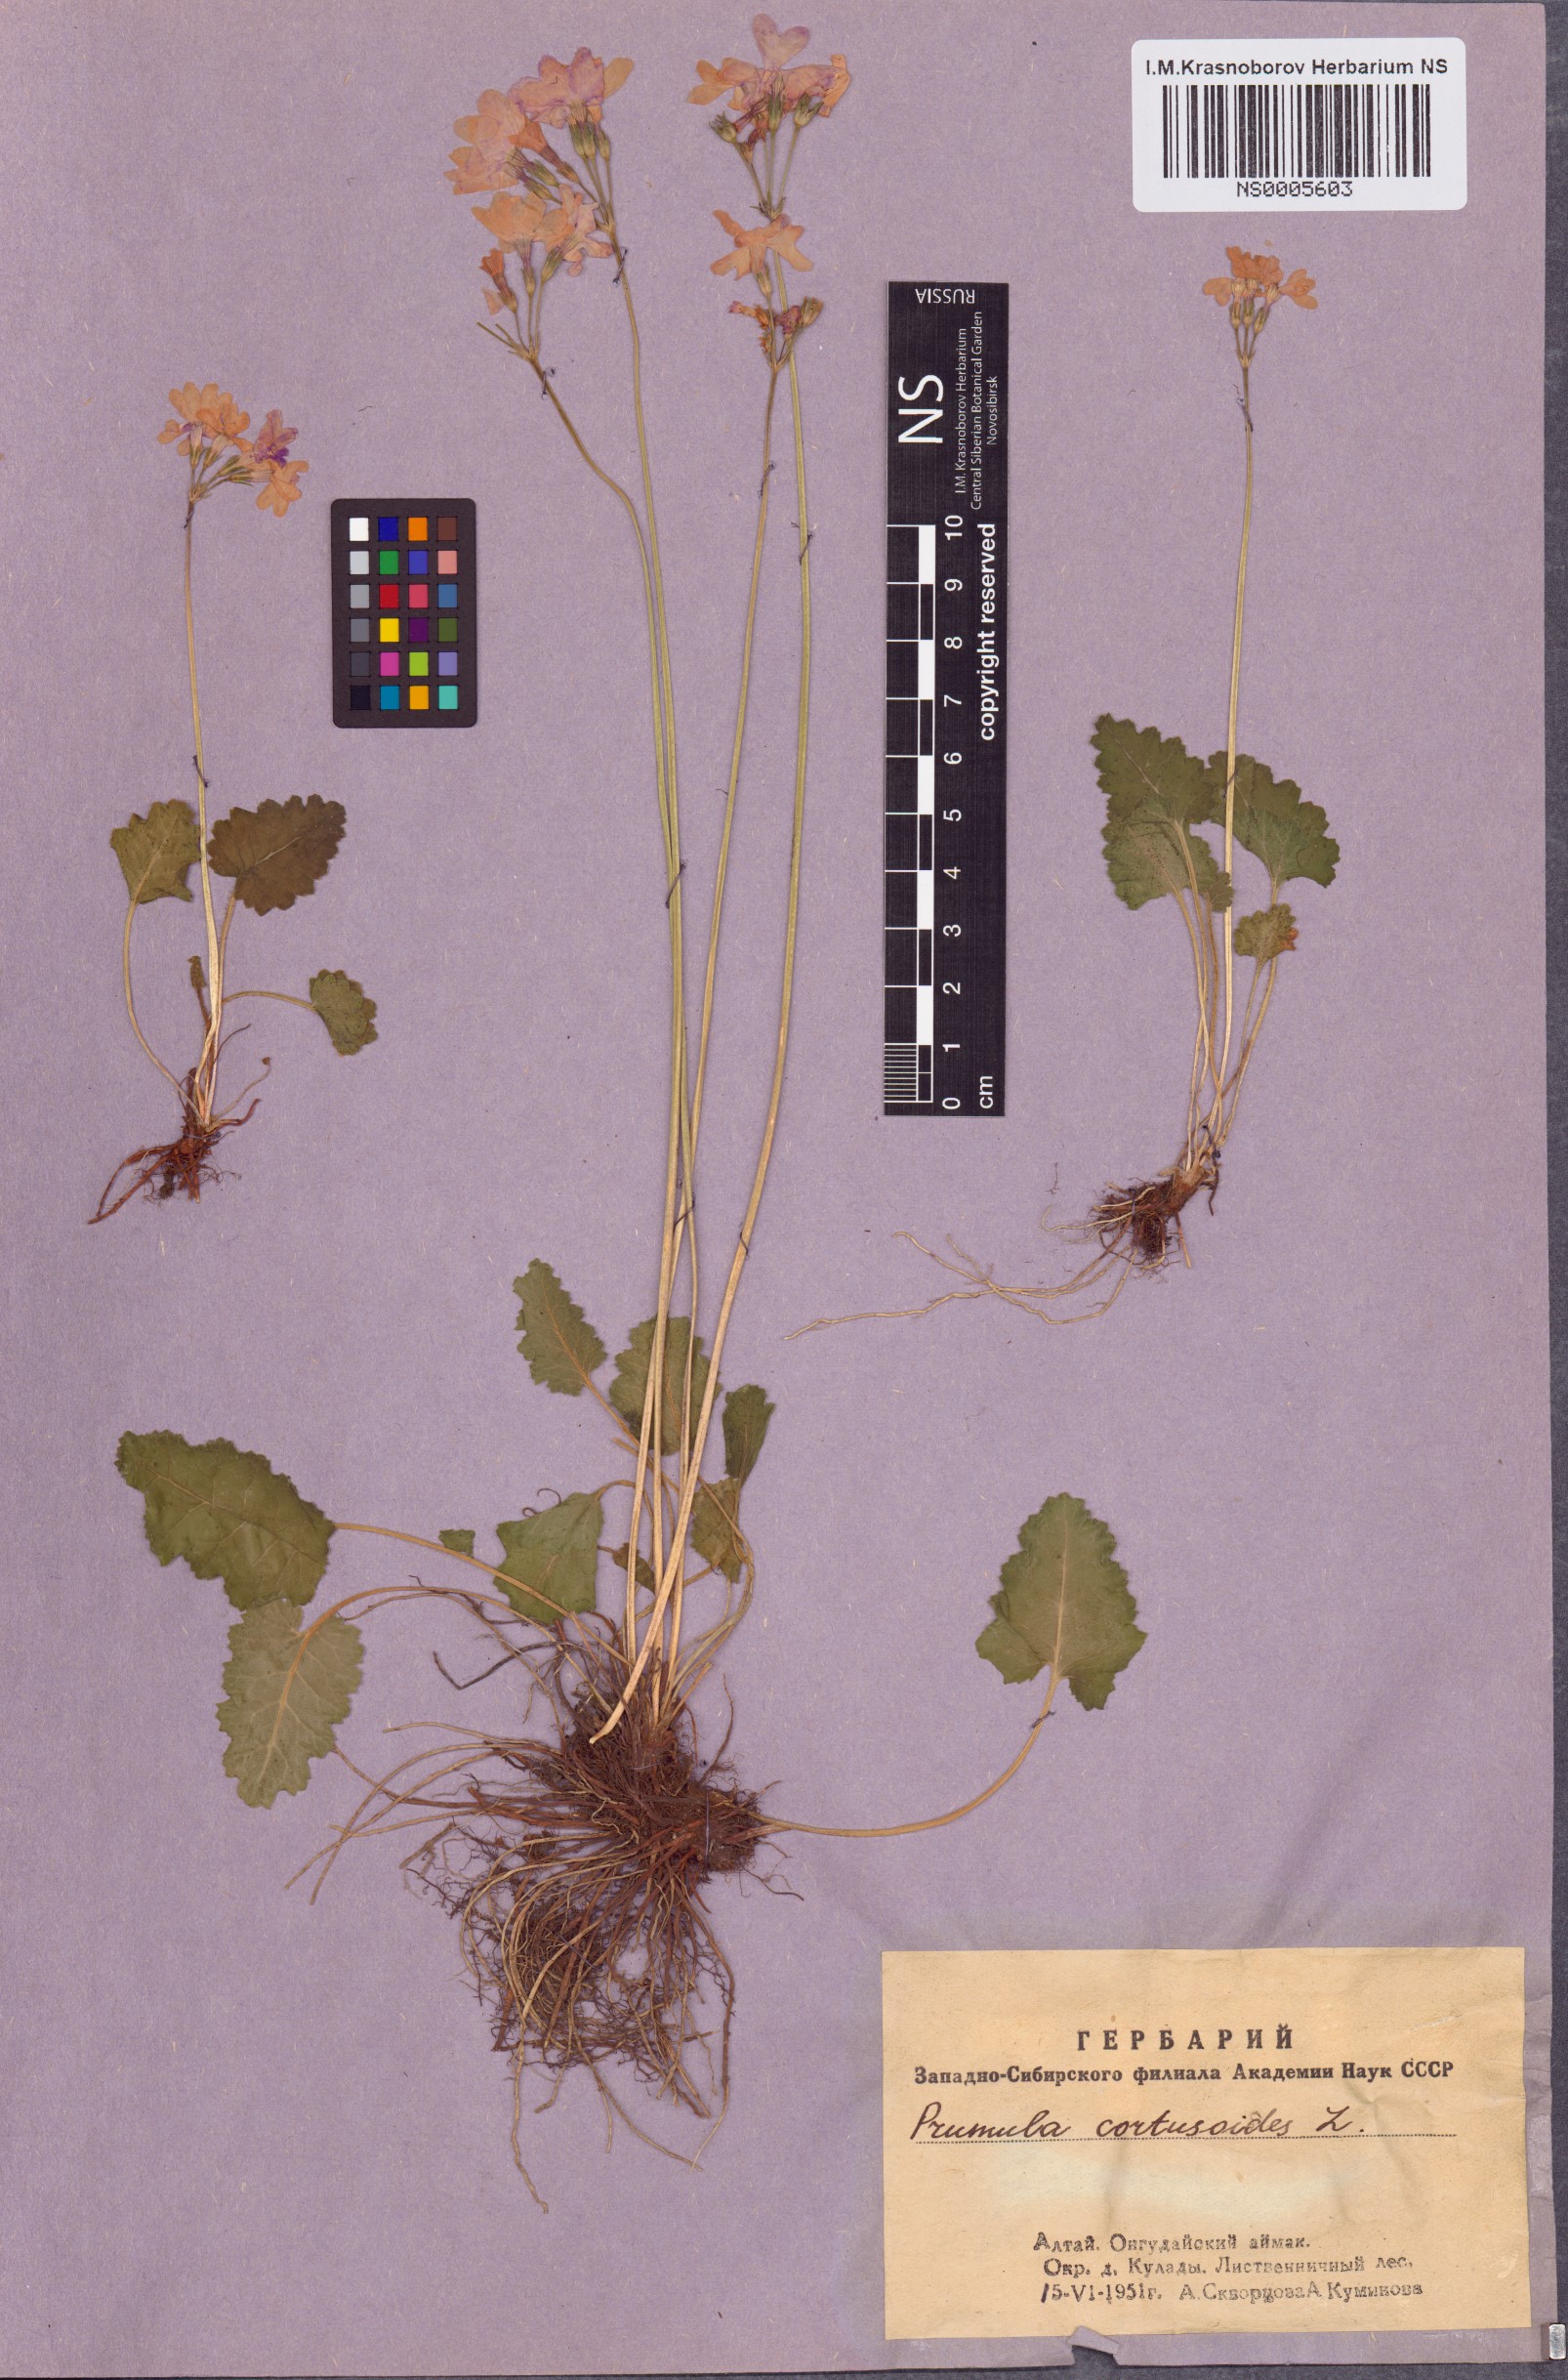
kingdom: Plantae
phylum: Tracheophyta
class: Magnoliopsida
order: Ericales
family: Primulaceae
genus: Primula
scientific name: Primula cortusoides
